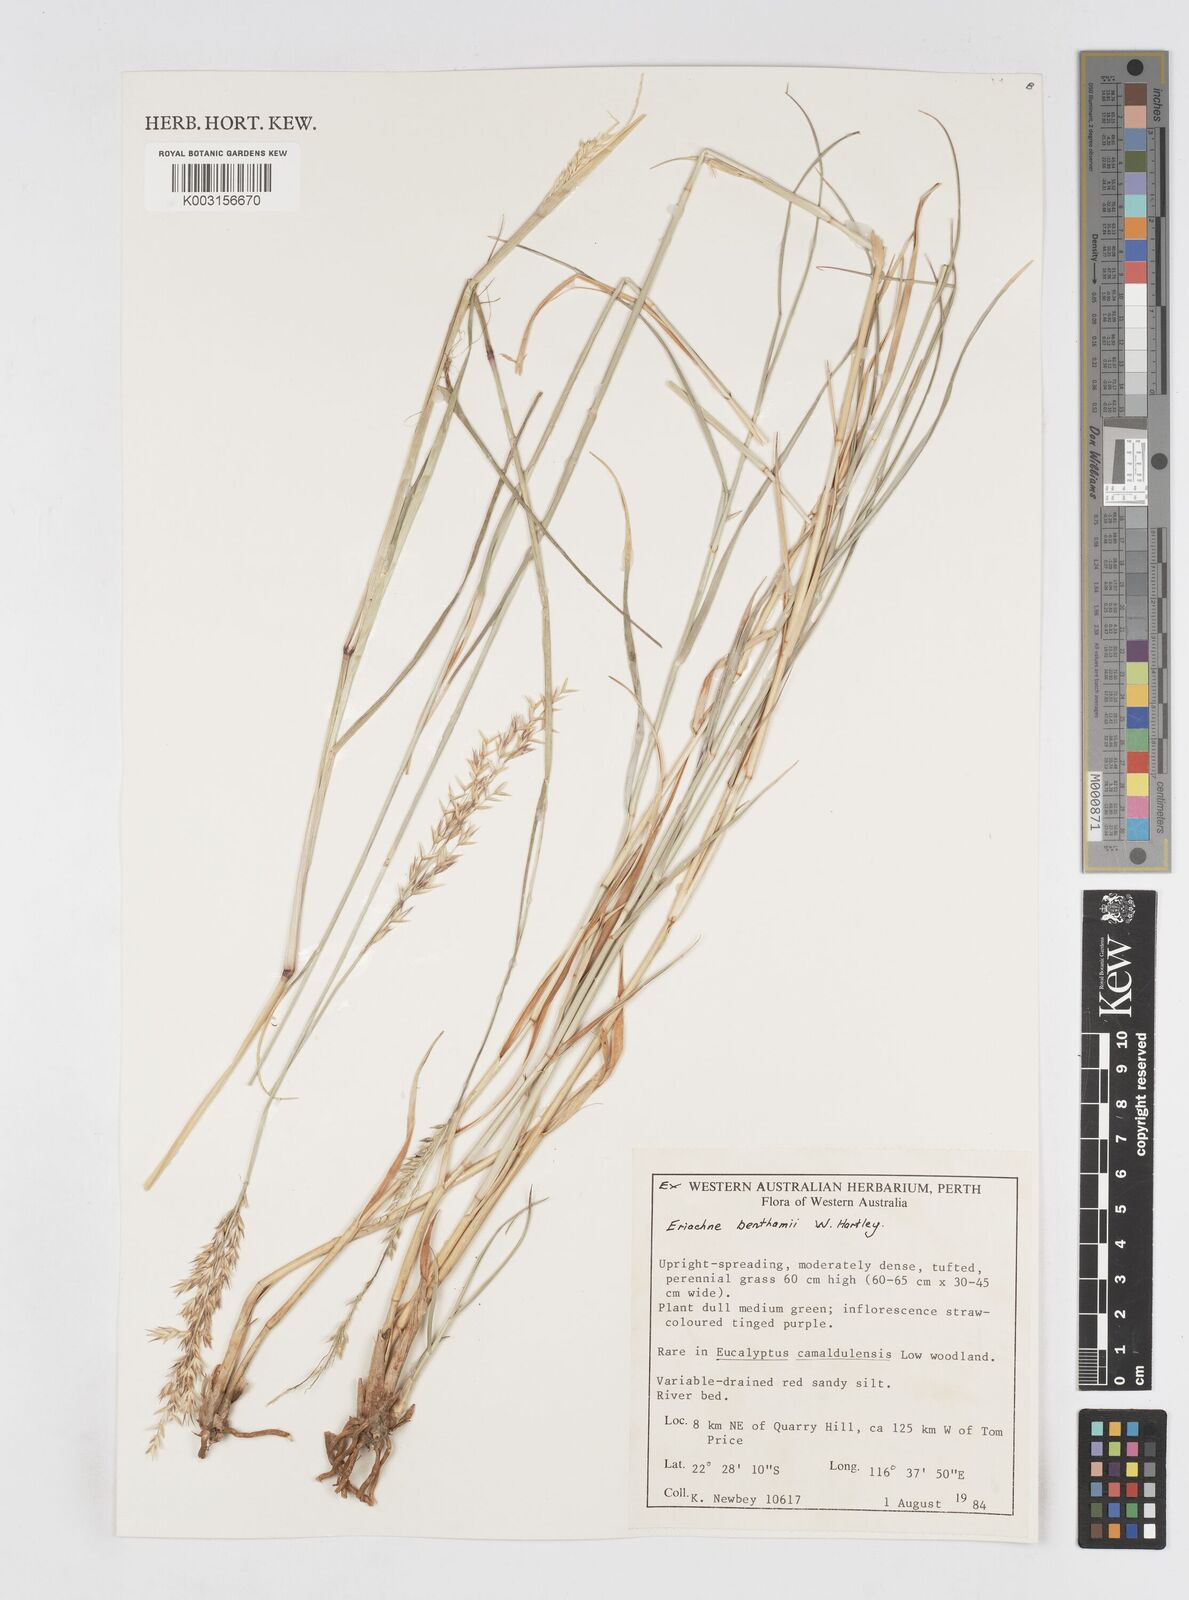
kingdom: Plantae
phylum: Tracheophyta
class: Liliopsida
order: Poales
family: Poaceae
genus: Eriachne
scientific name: Eriachne benthamii
